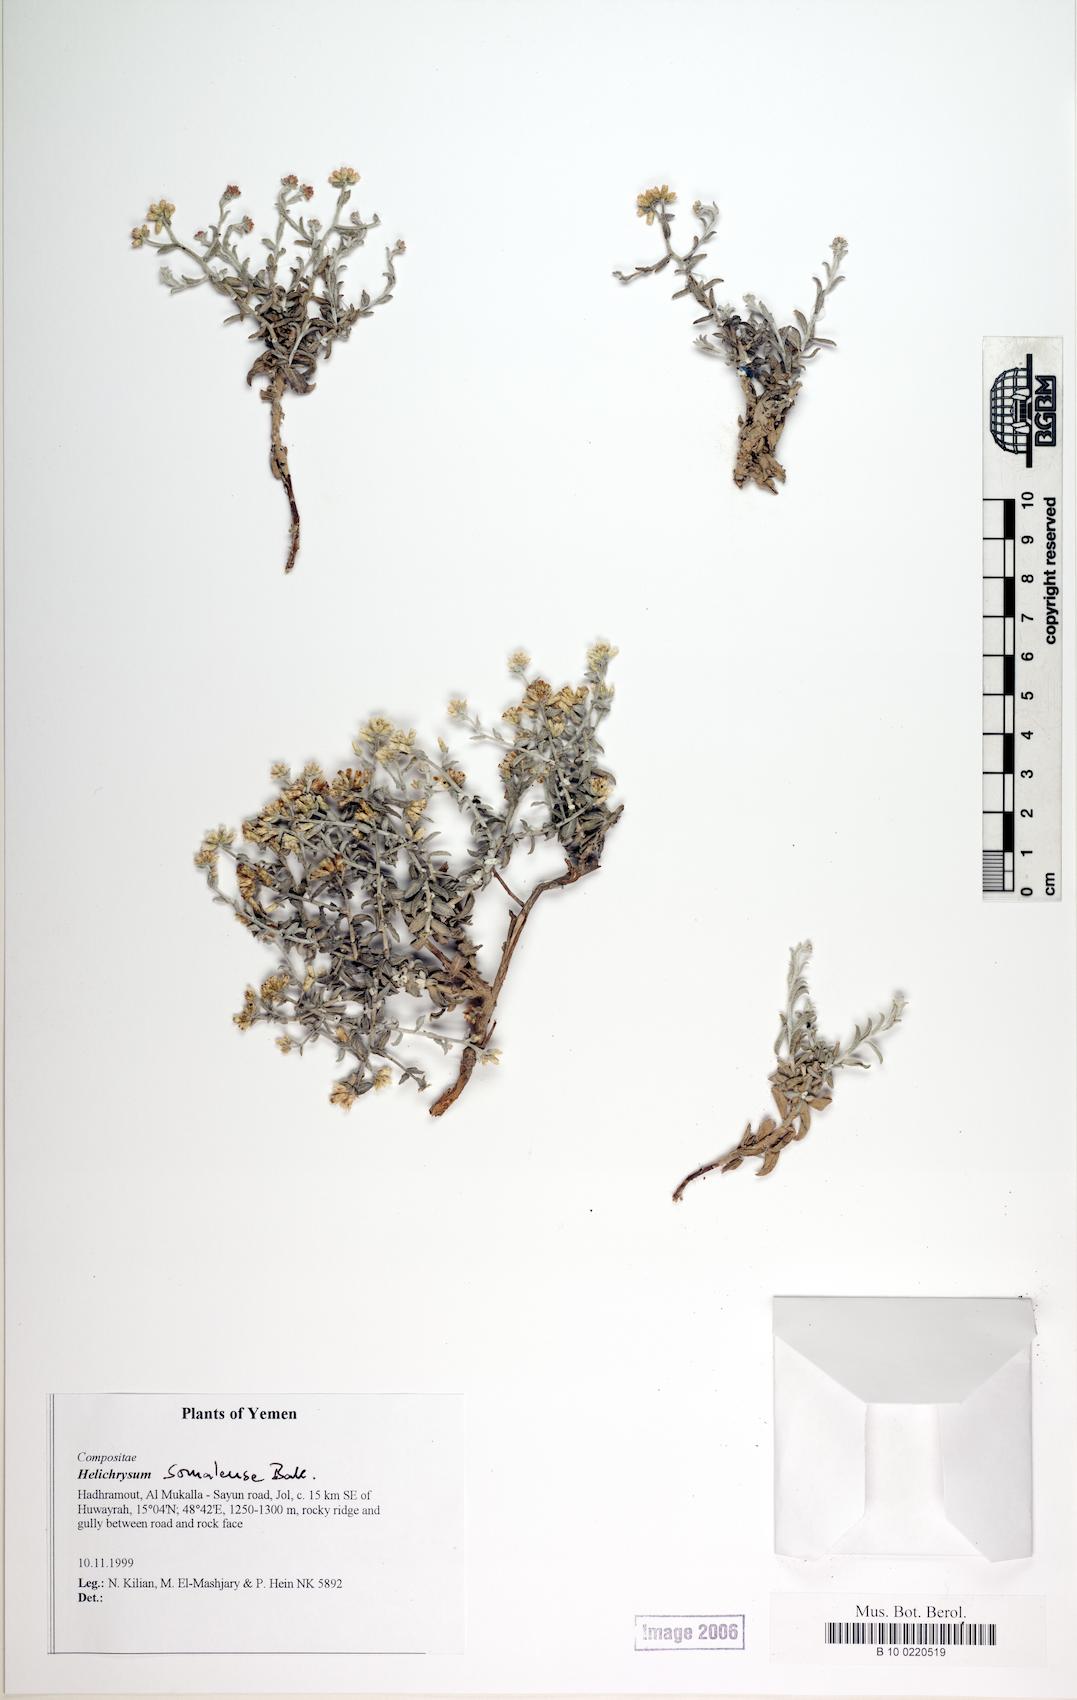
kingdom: Plantae
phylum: Tracheophyta
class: Magnoliopsida
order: Caryophyllales
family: Caryophyllaceae
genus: Stellaria
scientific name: Stellaria media
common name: Common chickweed
